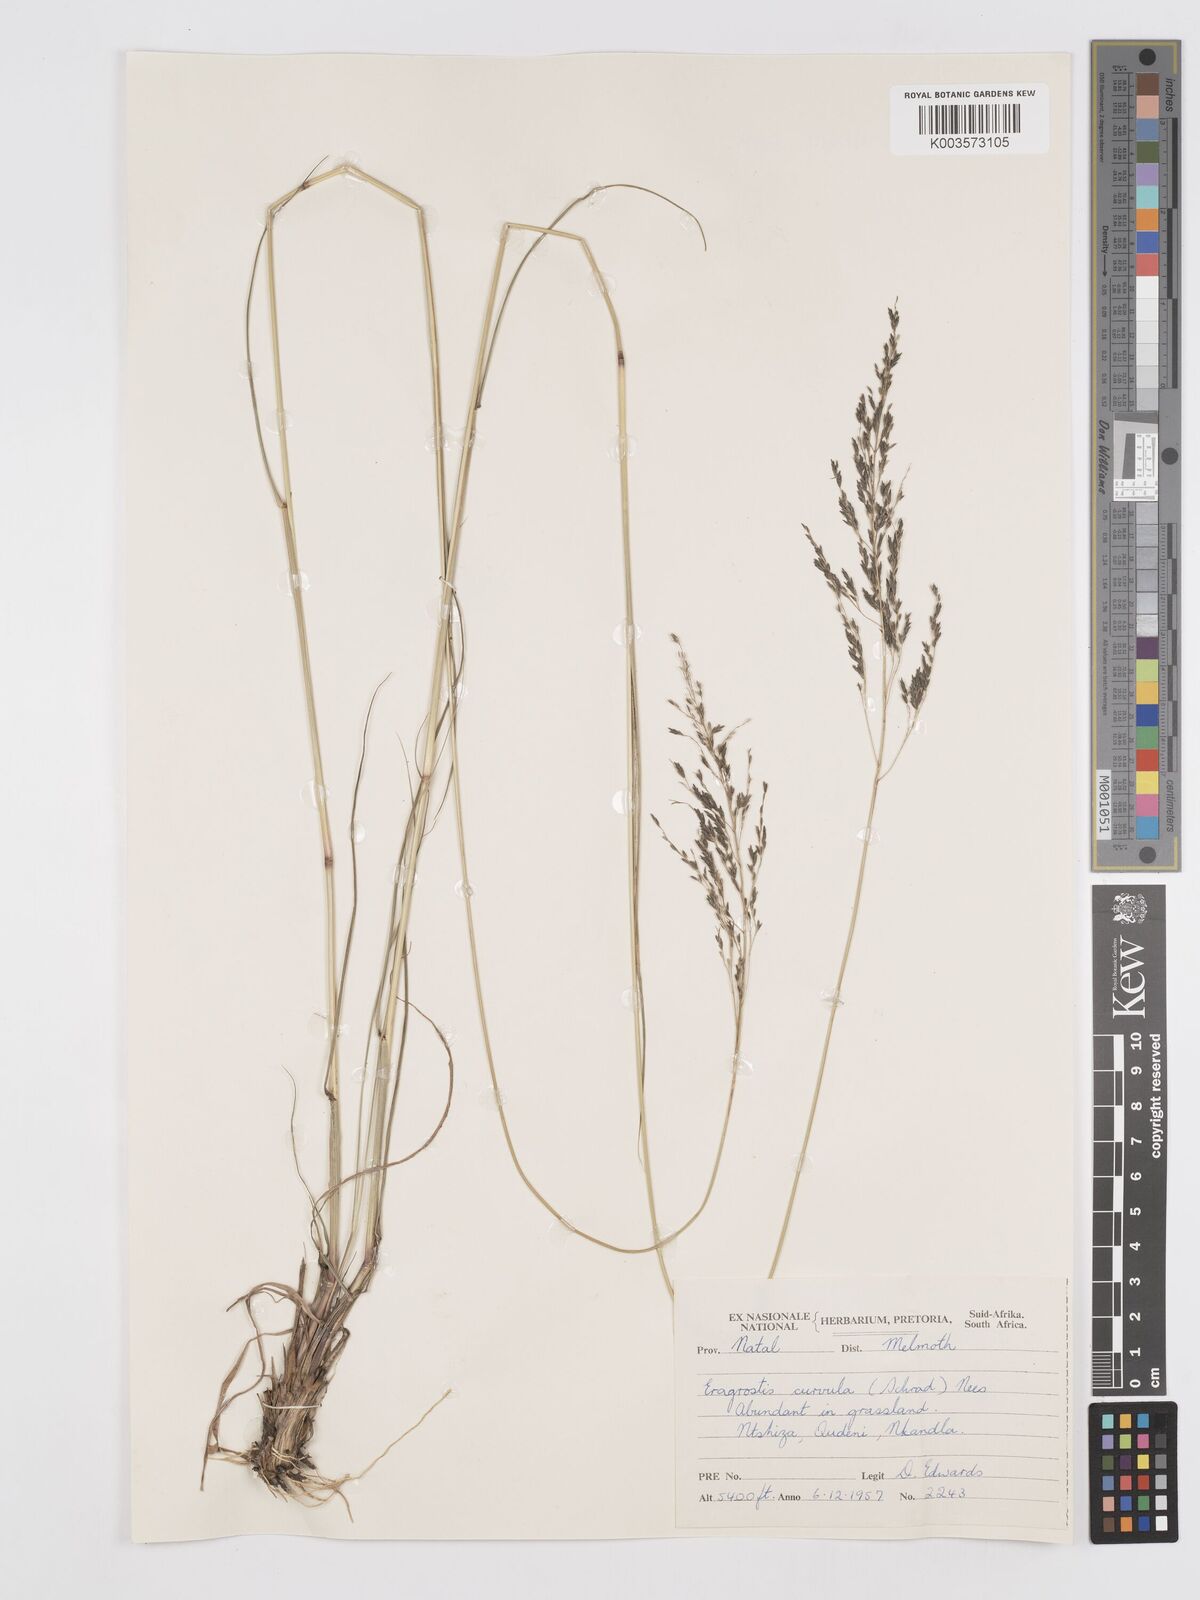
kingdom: Plantae
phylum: Tracheophyta
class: Liliopsida
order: Poales
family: Poaceae
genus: Eragrostis
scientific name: Eragrostis curvula
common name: African love-grass
